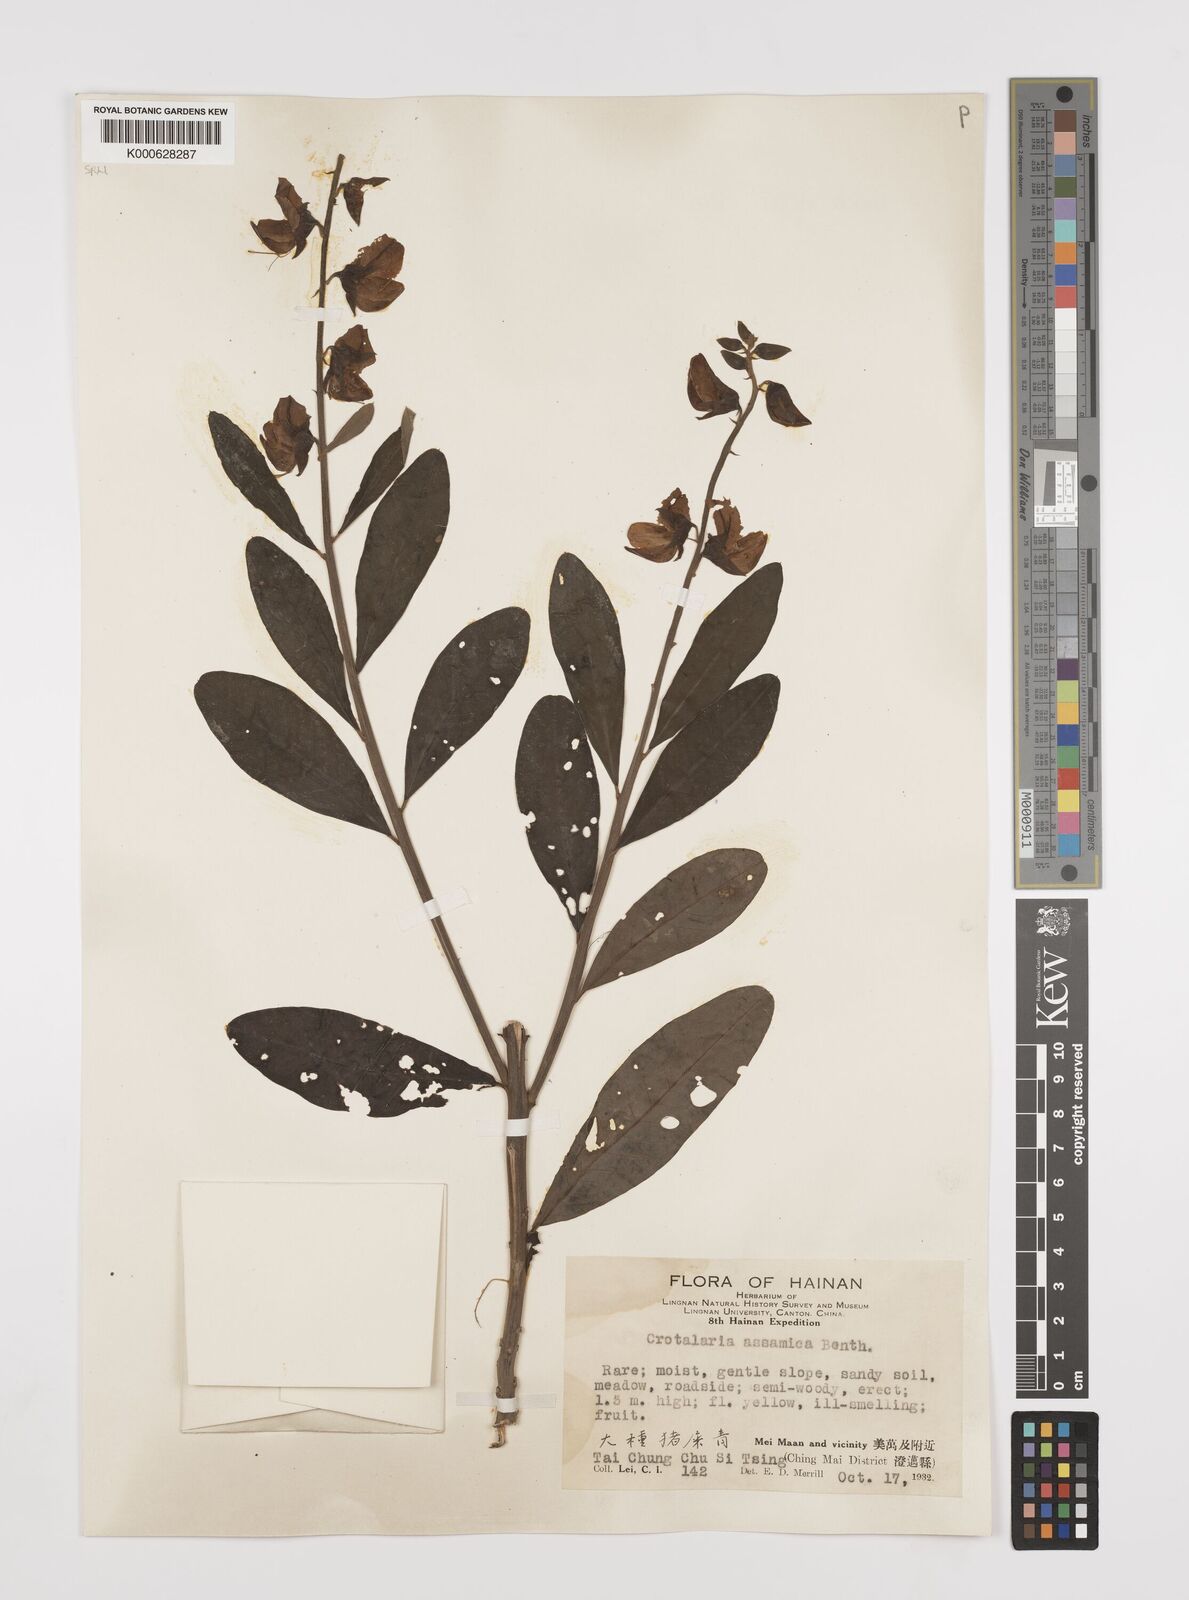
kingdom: Plantae
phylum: Tracheophyta
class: Magnoliopsida
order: Fabales
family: Fabaceae
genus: Crotalaria
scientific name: Crotalaria sericea
